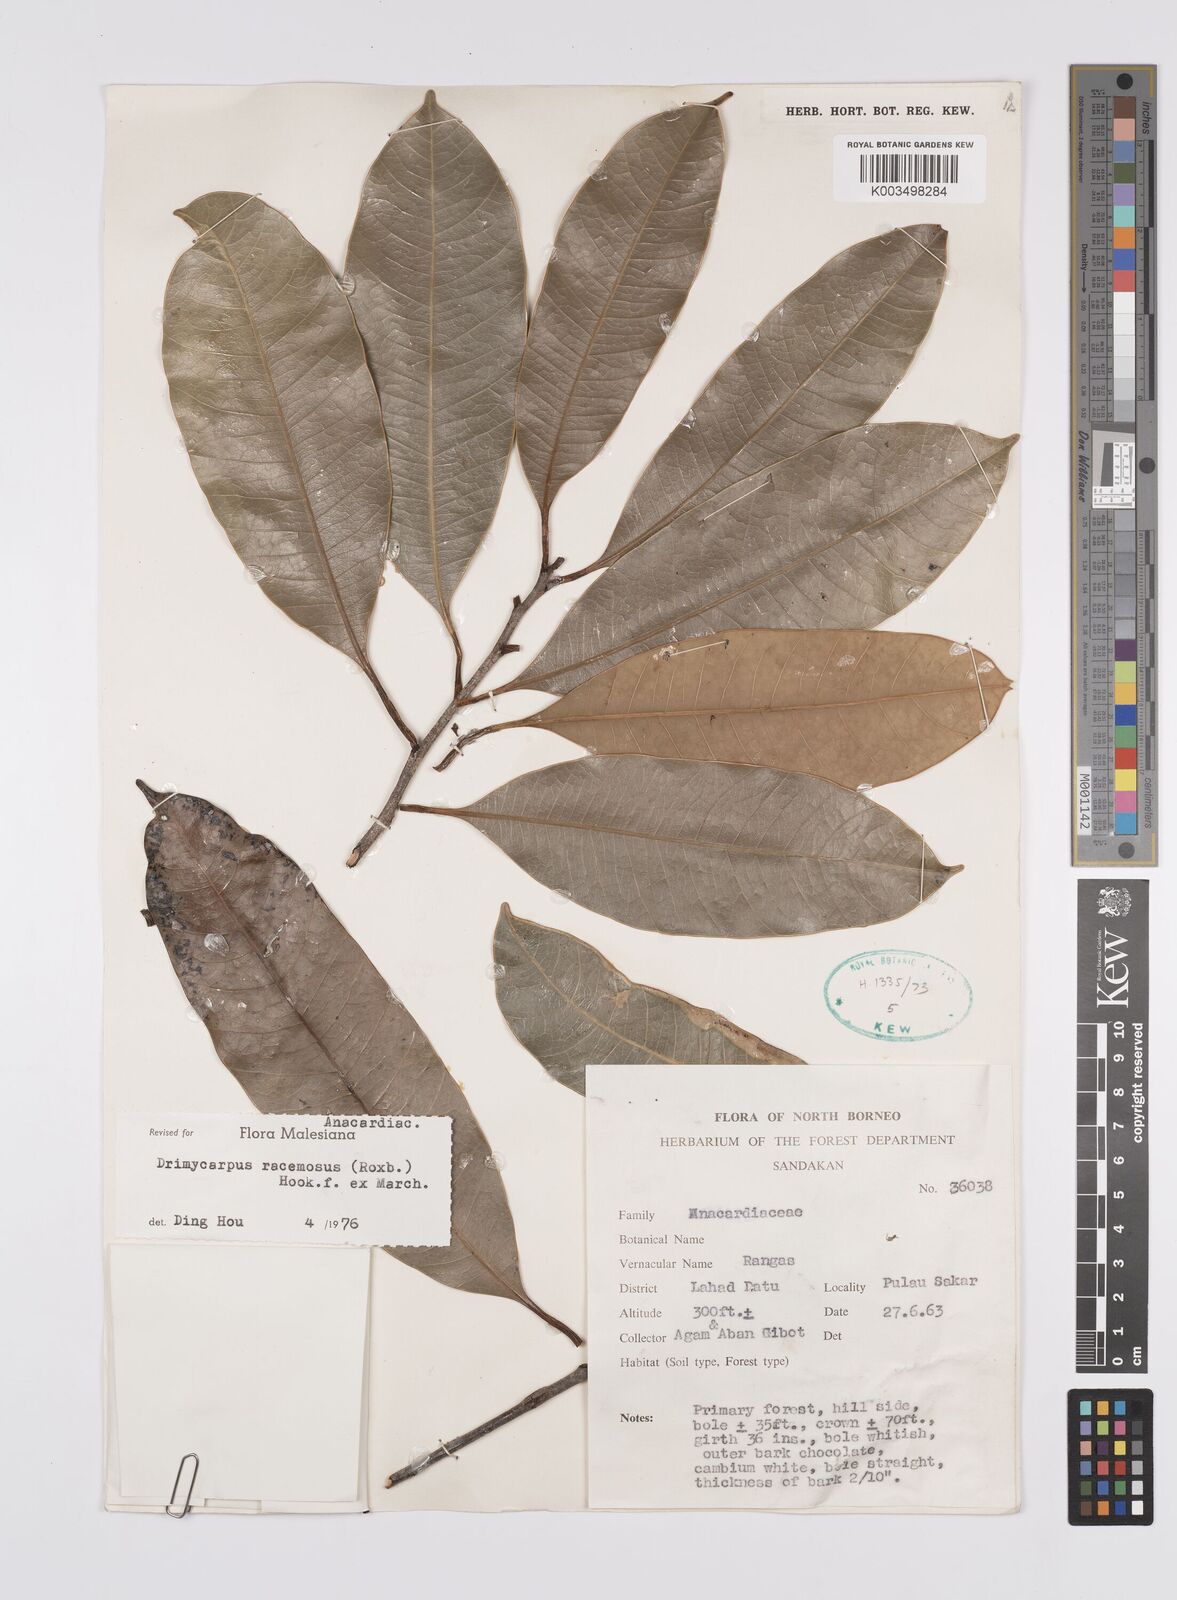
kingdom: Plantae
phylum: Tracheophyta
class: Magnoliopsida
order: Sapindales
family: Anacardiaceae
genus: Drimycarpus
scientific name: Drimycarpus luridus
